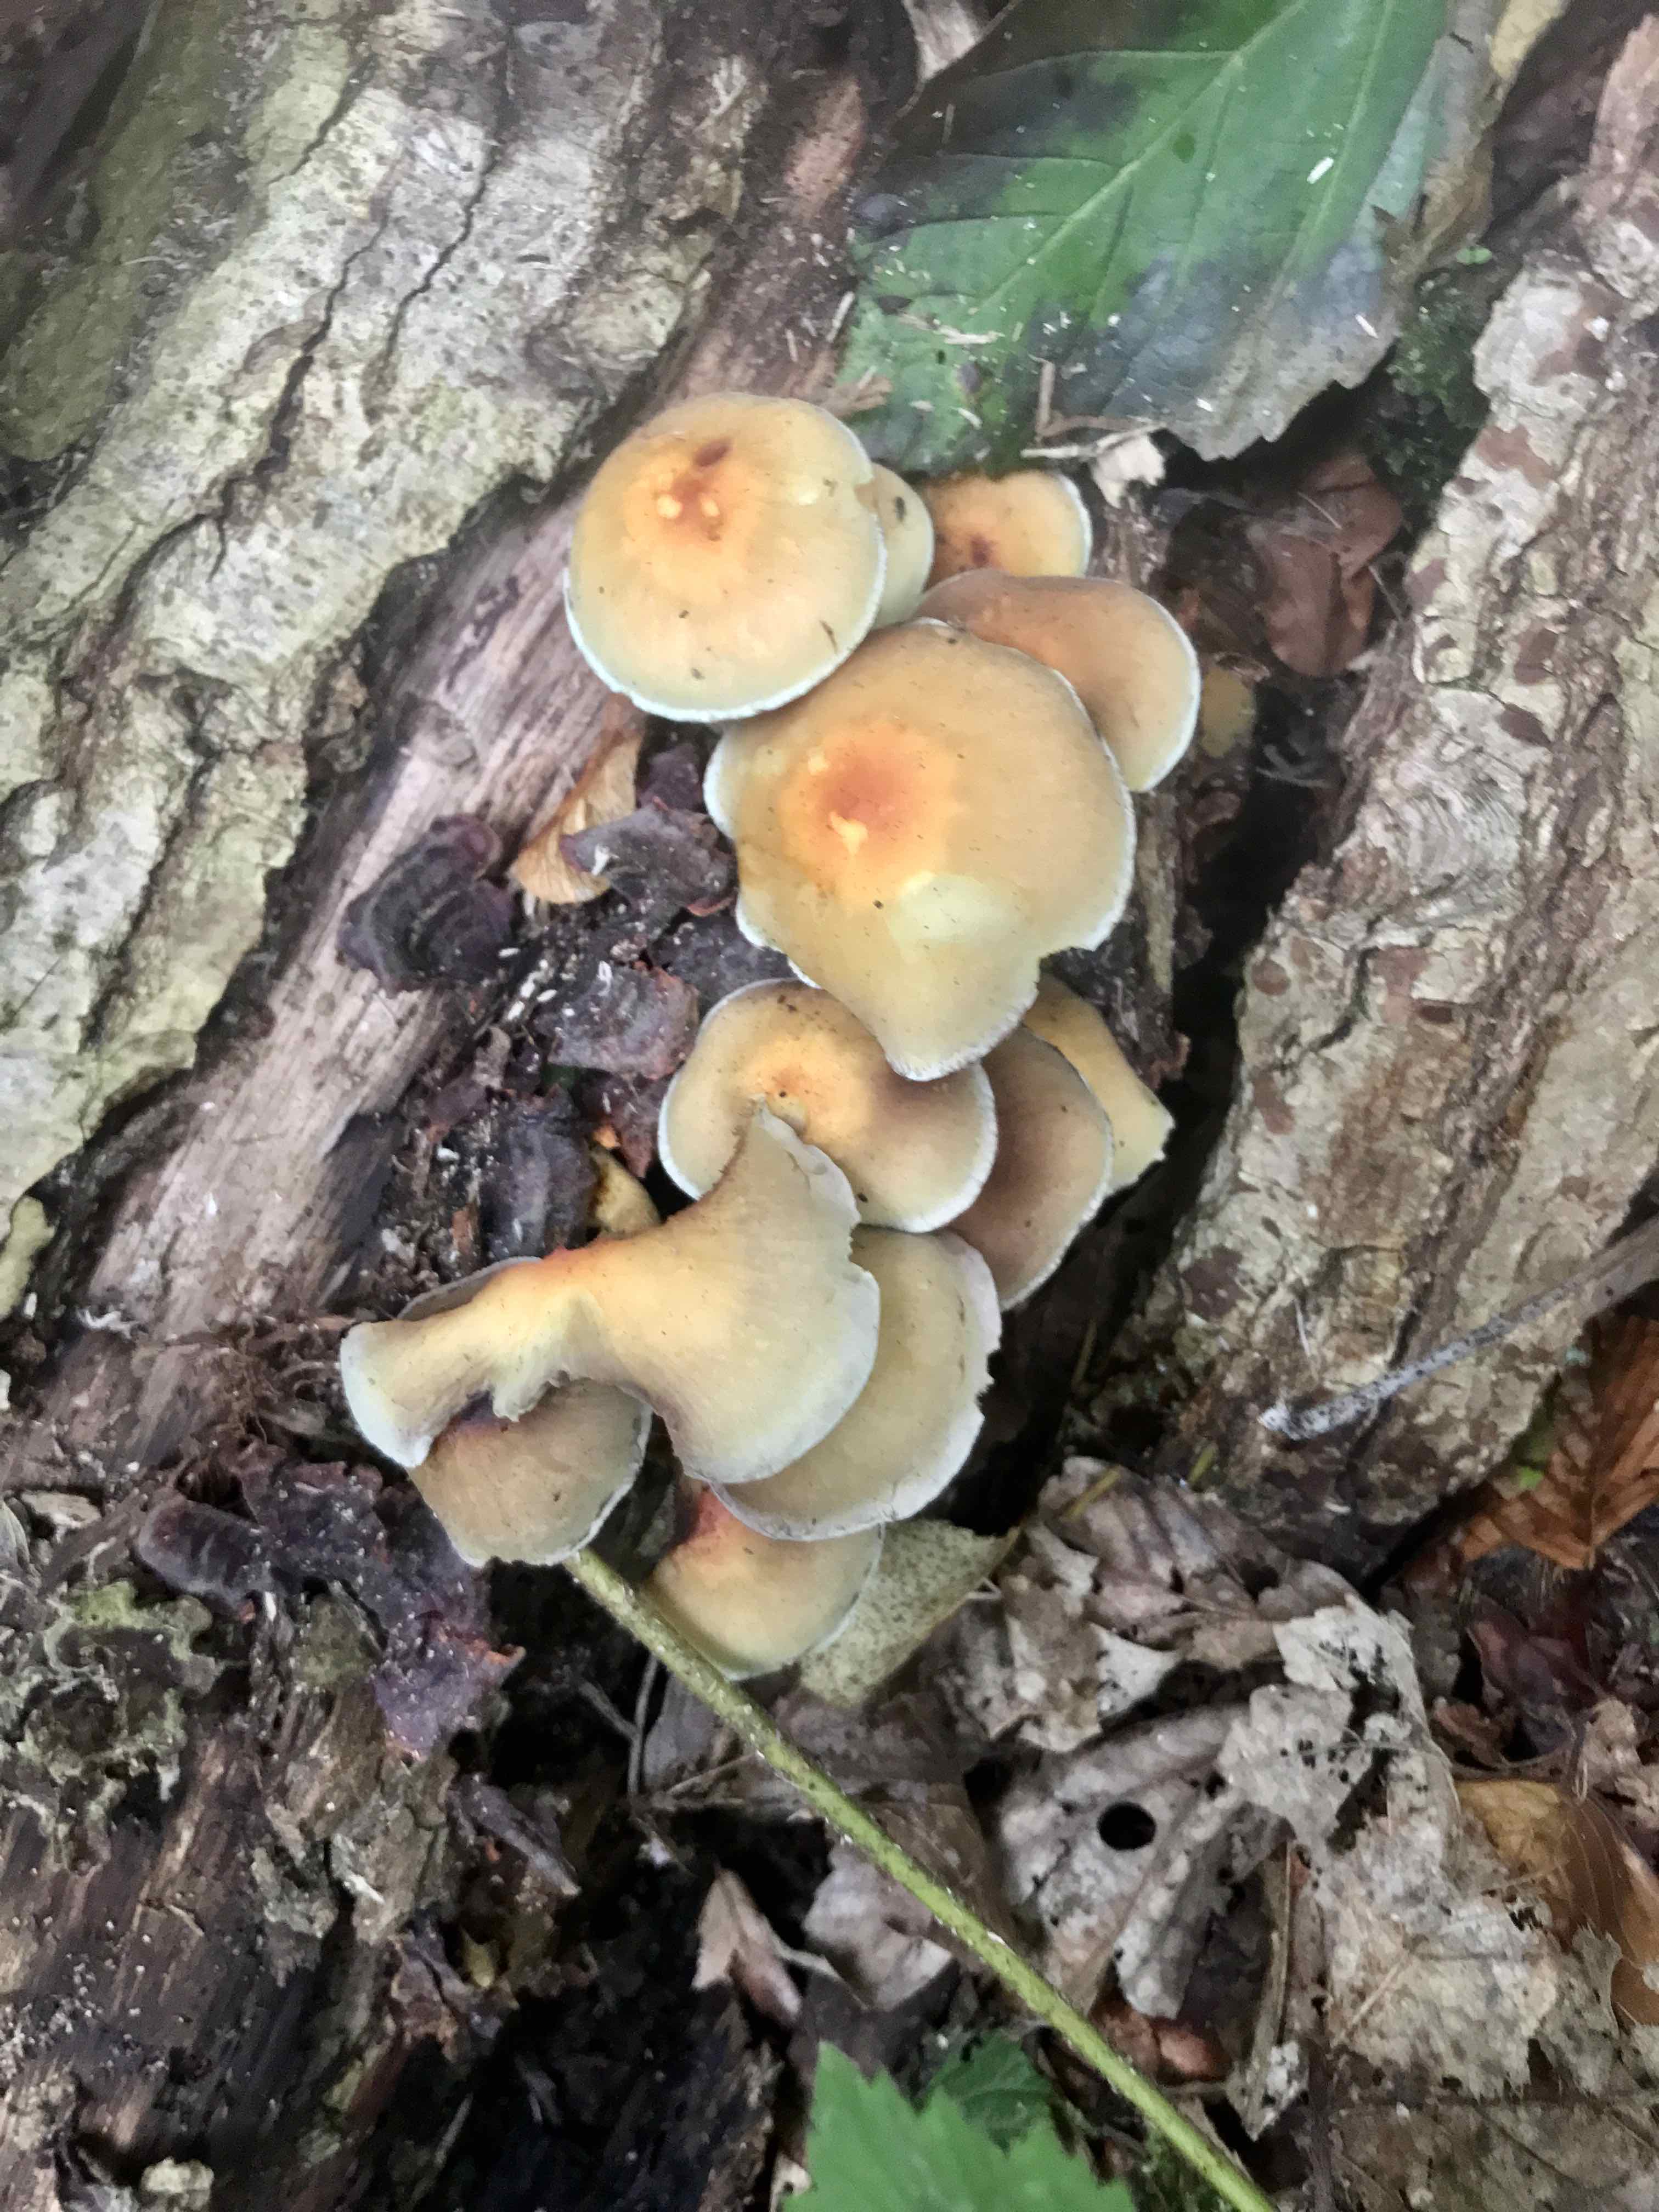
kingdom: Fungi
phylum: Basidiomycota
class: Agaricomycetes
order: Agaricales
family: Strophariaceae
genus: Hypholoma
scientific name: Hypholoma fasciculare
